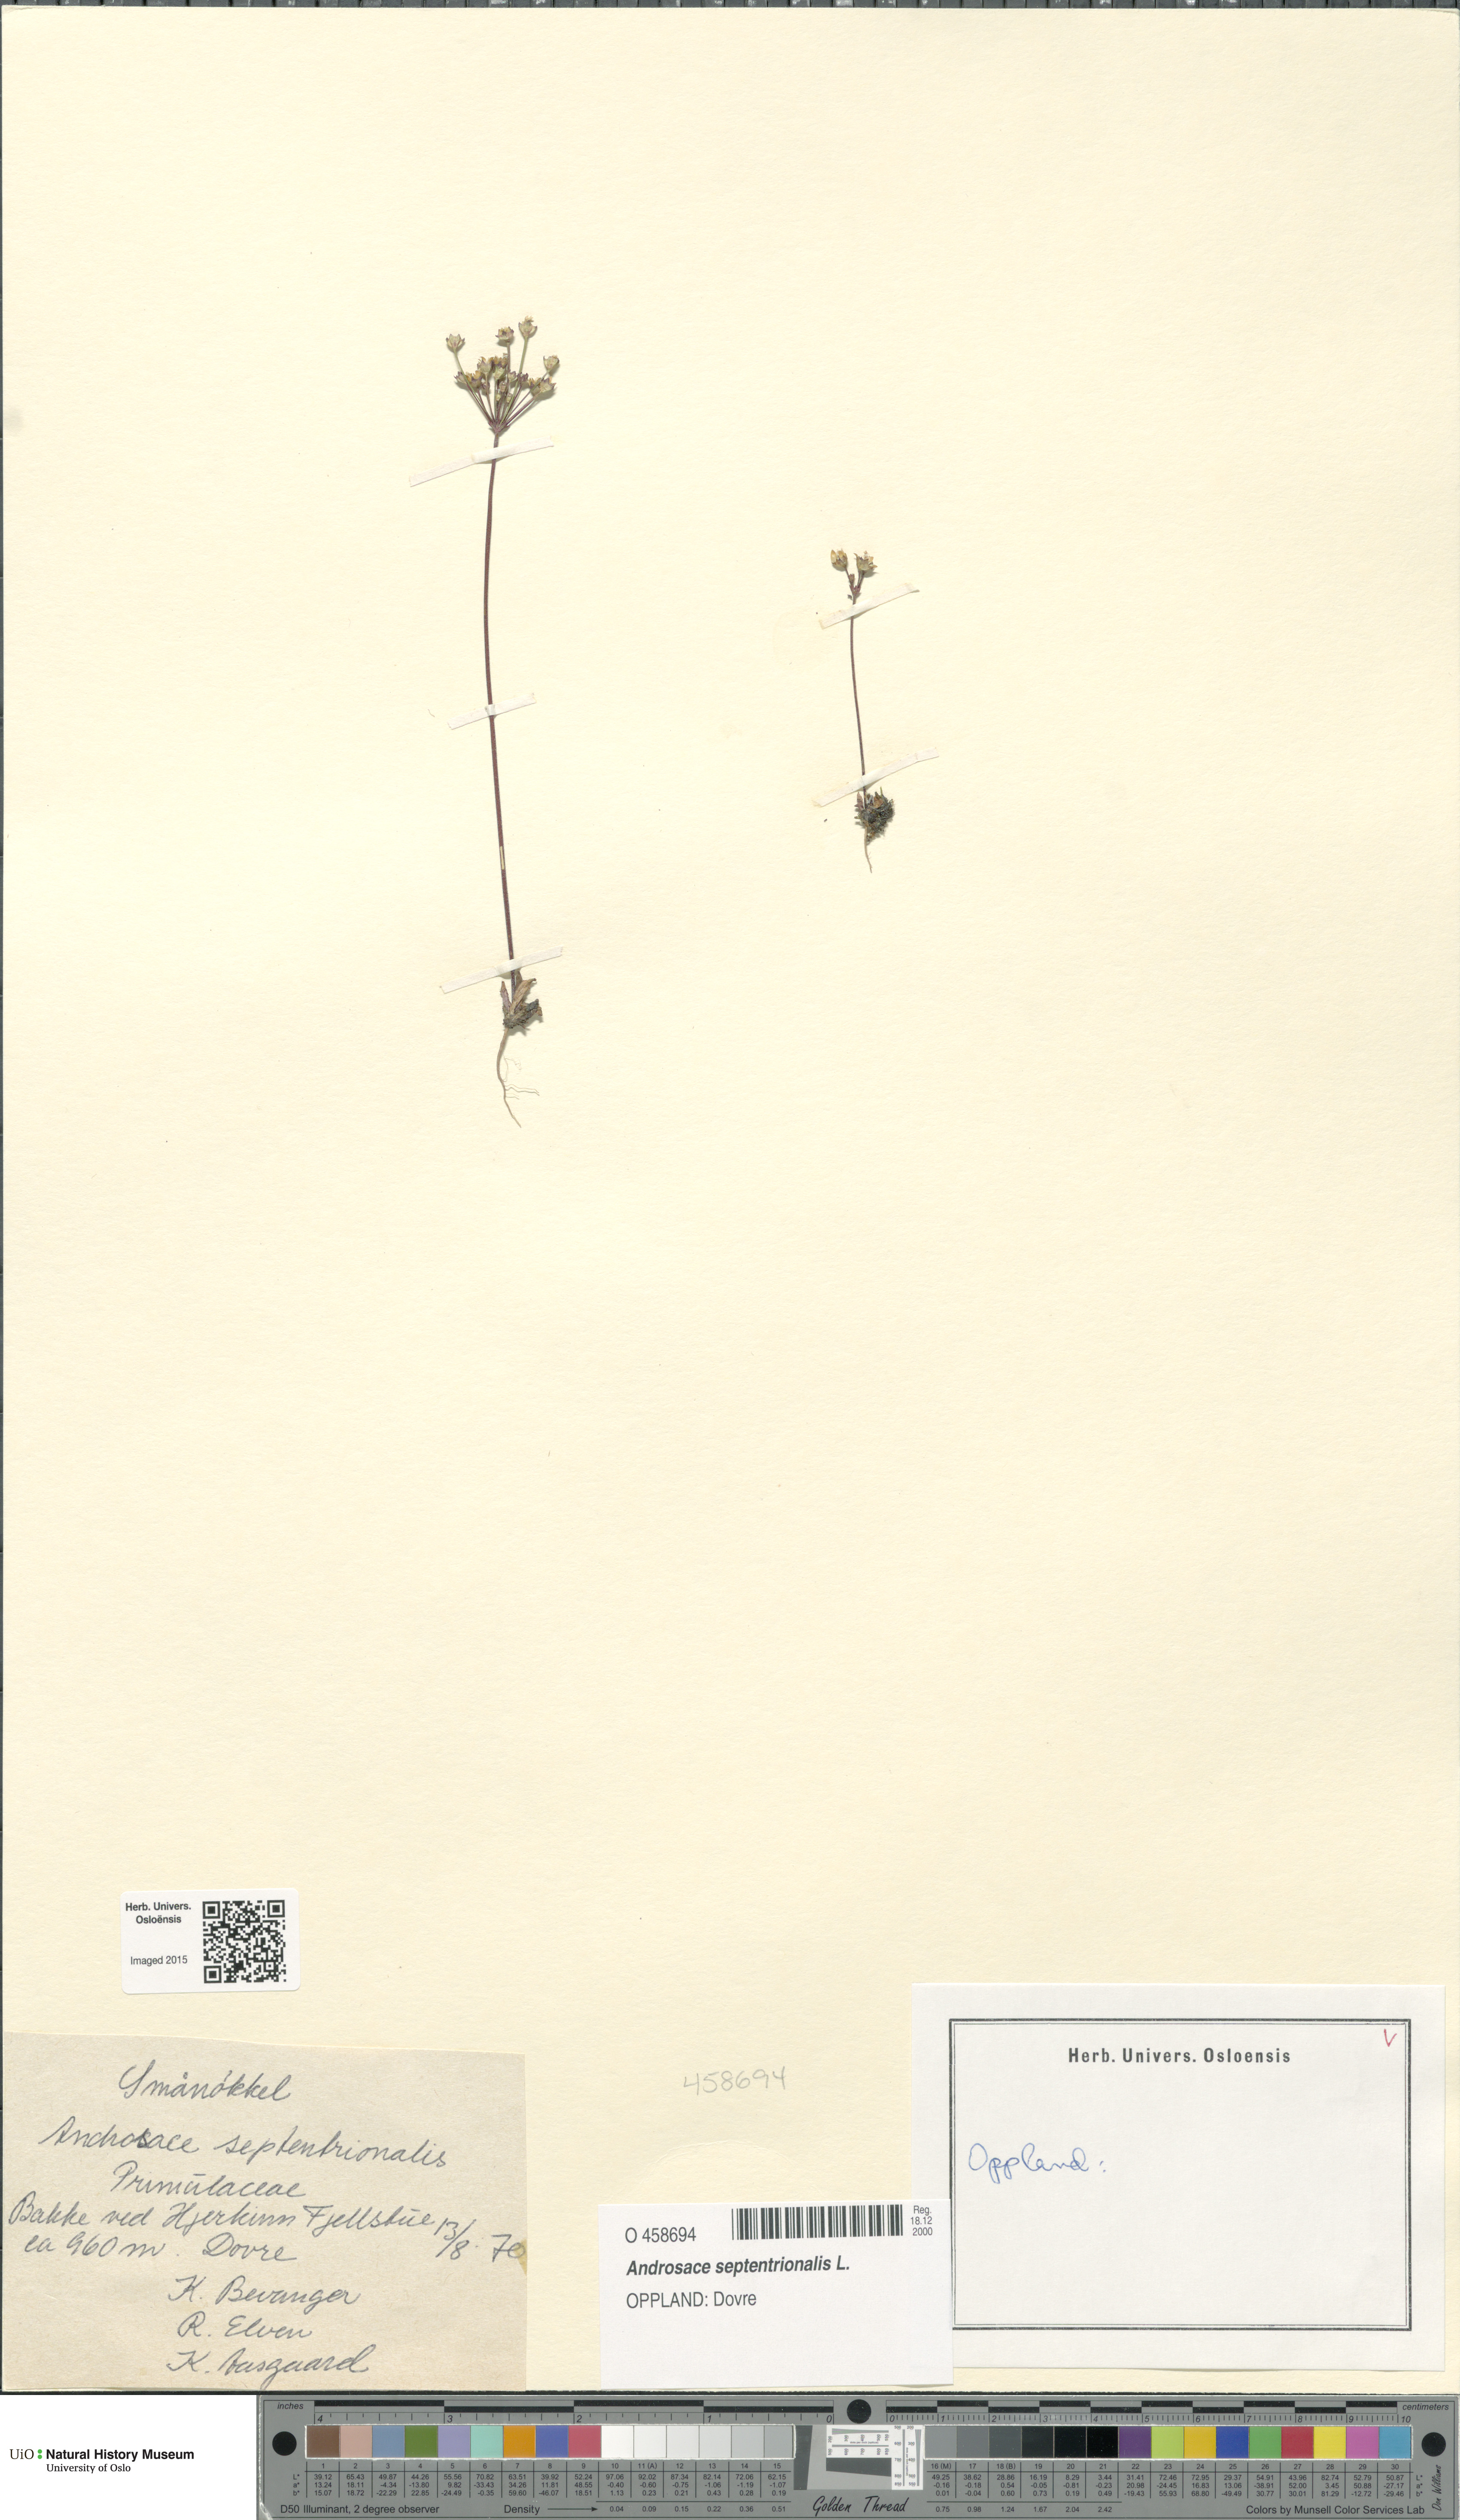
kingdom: Plantae
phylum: Tracheophyta
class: Magnoliopsida
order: Ericales
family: Primulaceae
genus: Androsace
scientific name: Androsace septentrionalis
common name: Hairy northern fairy-candelabra
